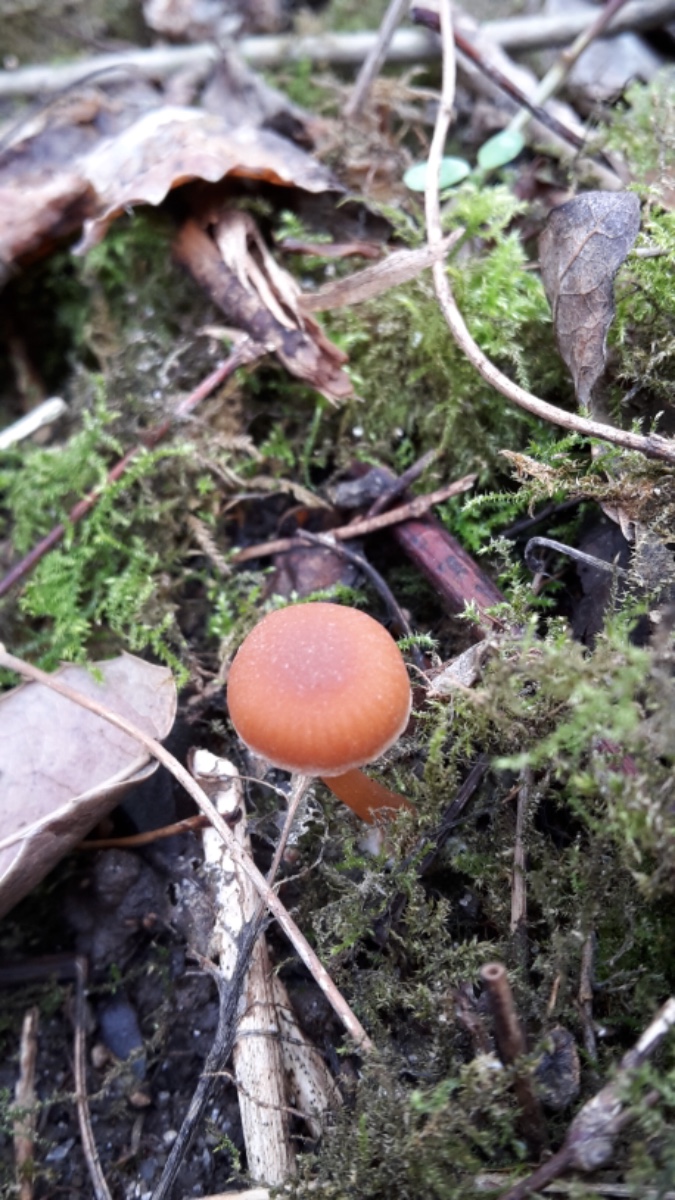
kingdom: Fungi
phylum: Basidiomycota
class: Agaricomycetes
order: Agaricales
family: Tubariaceae
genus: Tubaria
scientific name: Tubaria furfuracea
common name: kliddet fnughat
